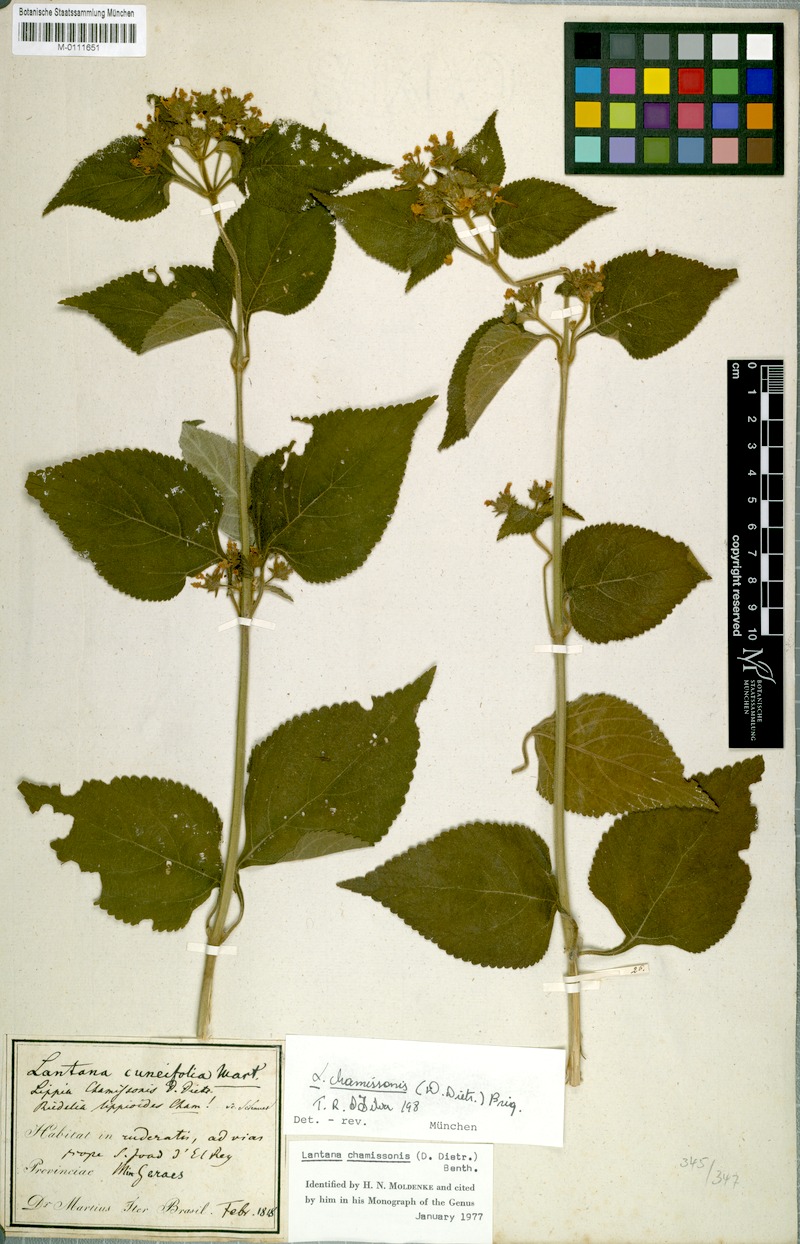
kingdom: Plantae
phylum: Tracheophyta
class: Magnoliopsida
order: Lamiales
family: Verbenaceae
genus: Lippia
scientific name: Lippia lippioides
